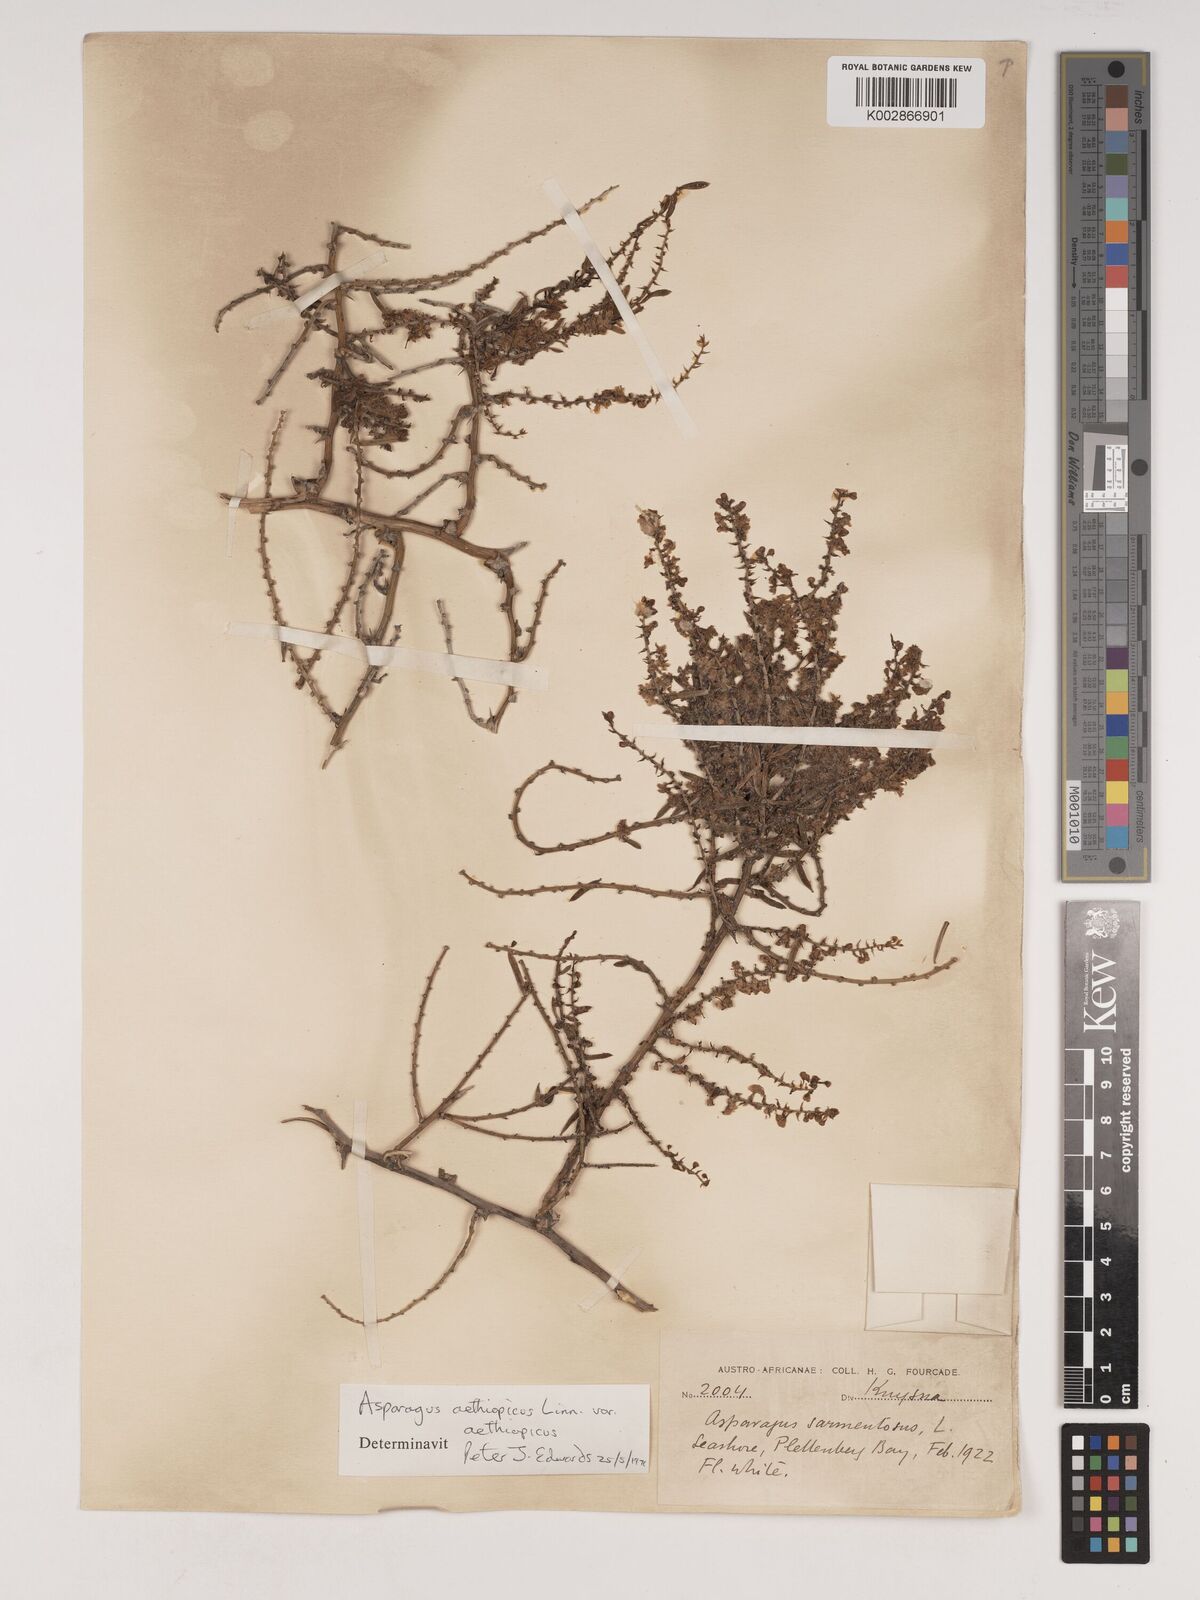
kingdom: Plantae
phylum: Tracheophyta
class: Liliopsida
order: Asparagales
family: Asparagaceae
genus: Asparagus
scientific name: Asparagus aethiopicus
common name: Sprenger's asparagus fern
